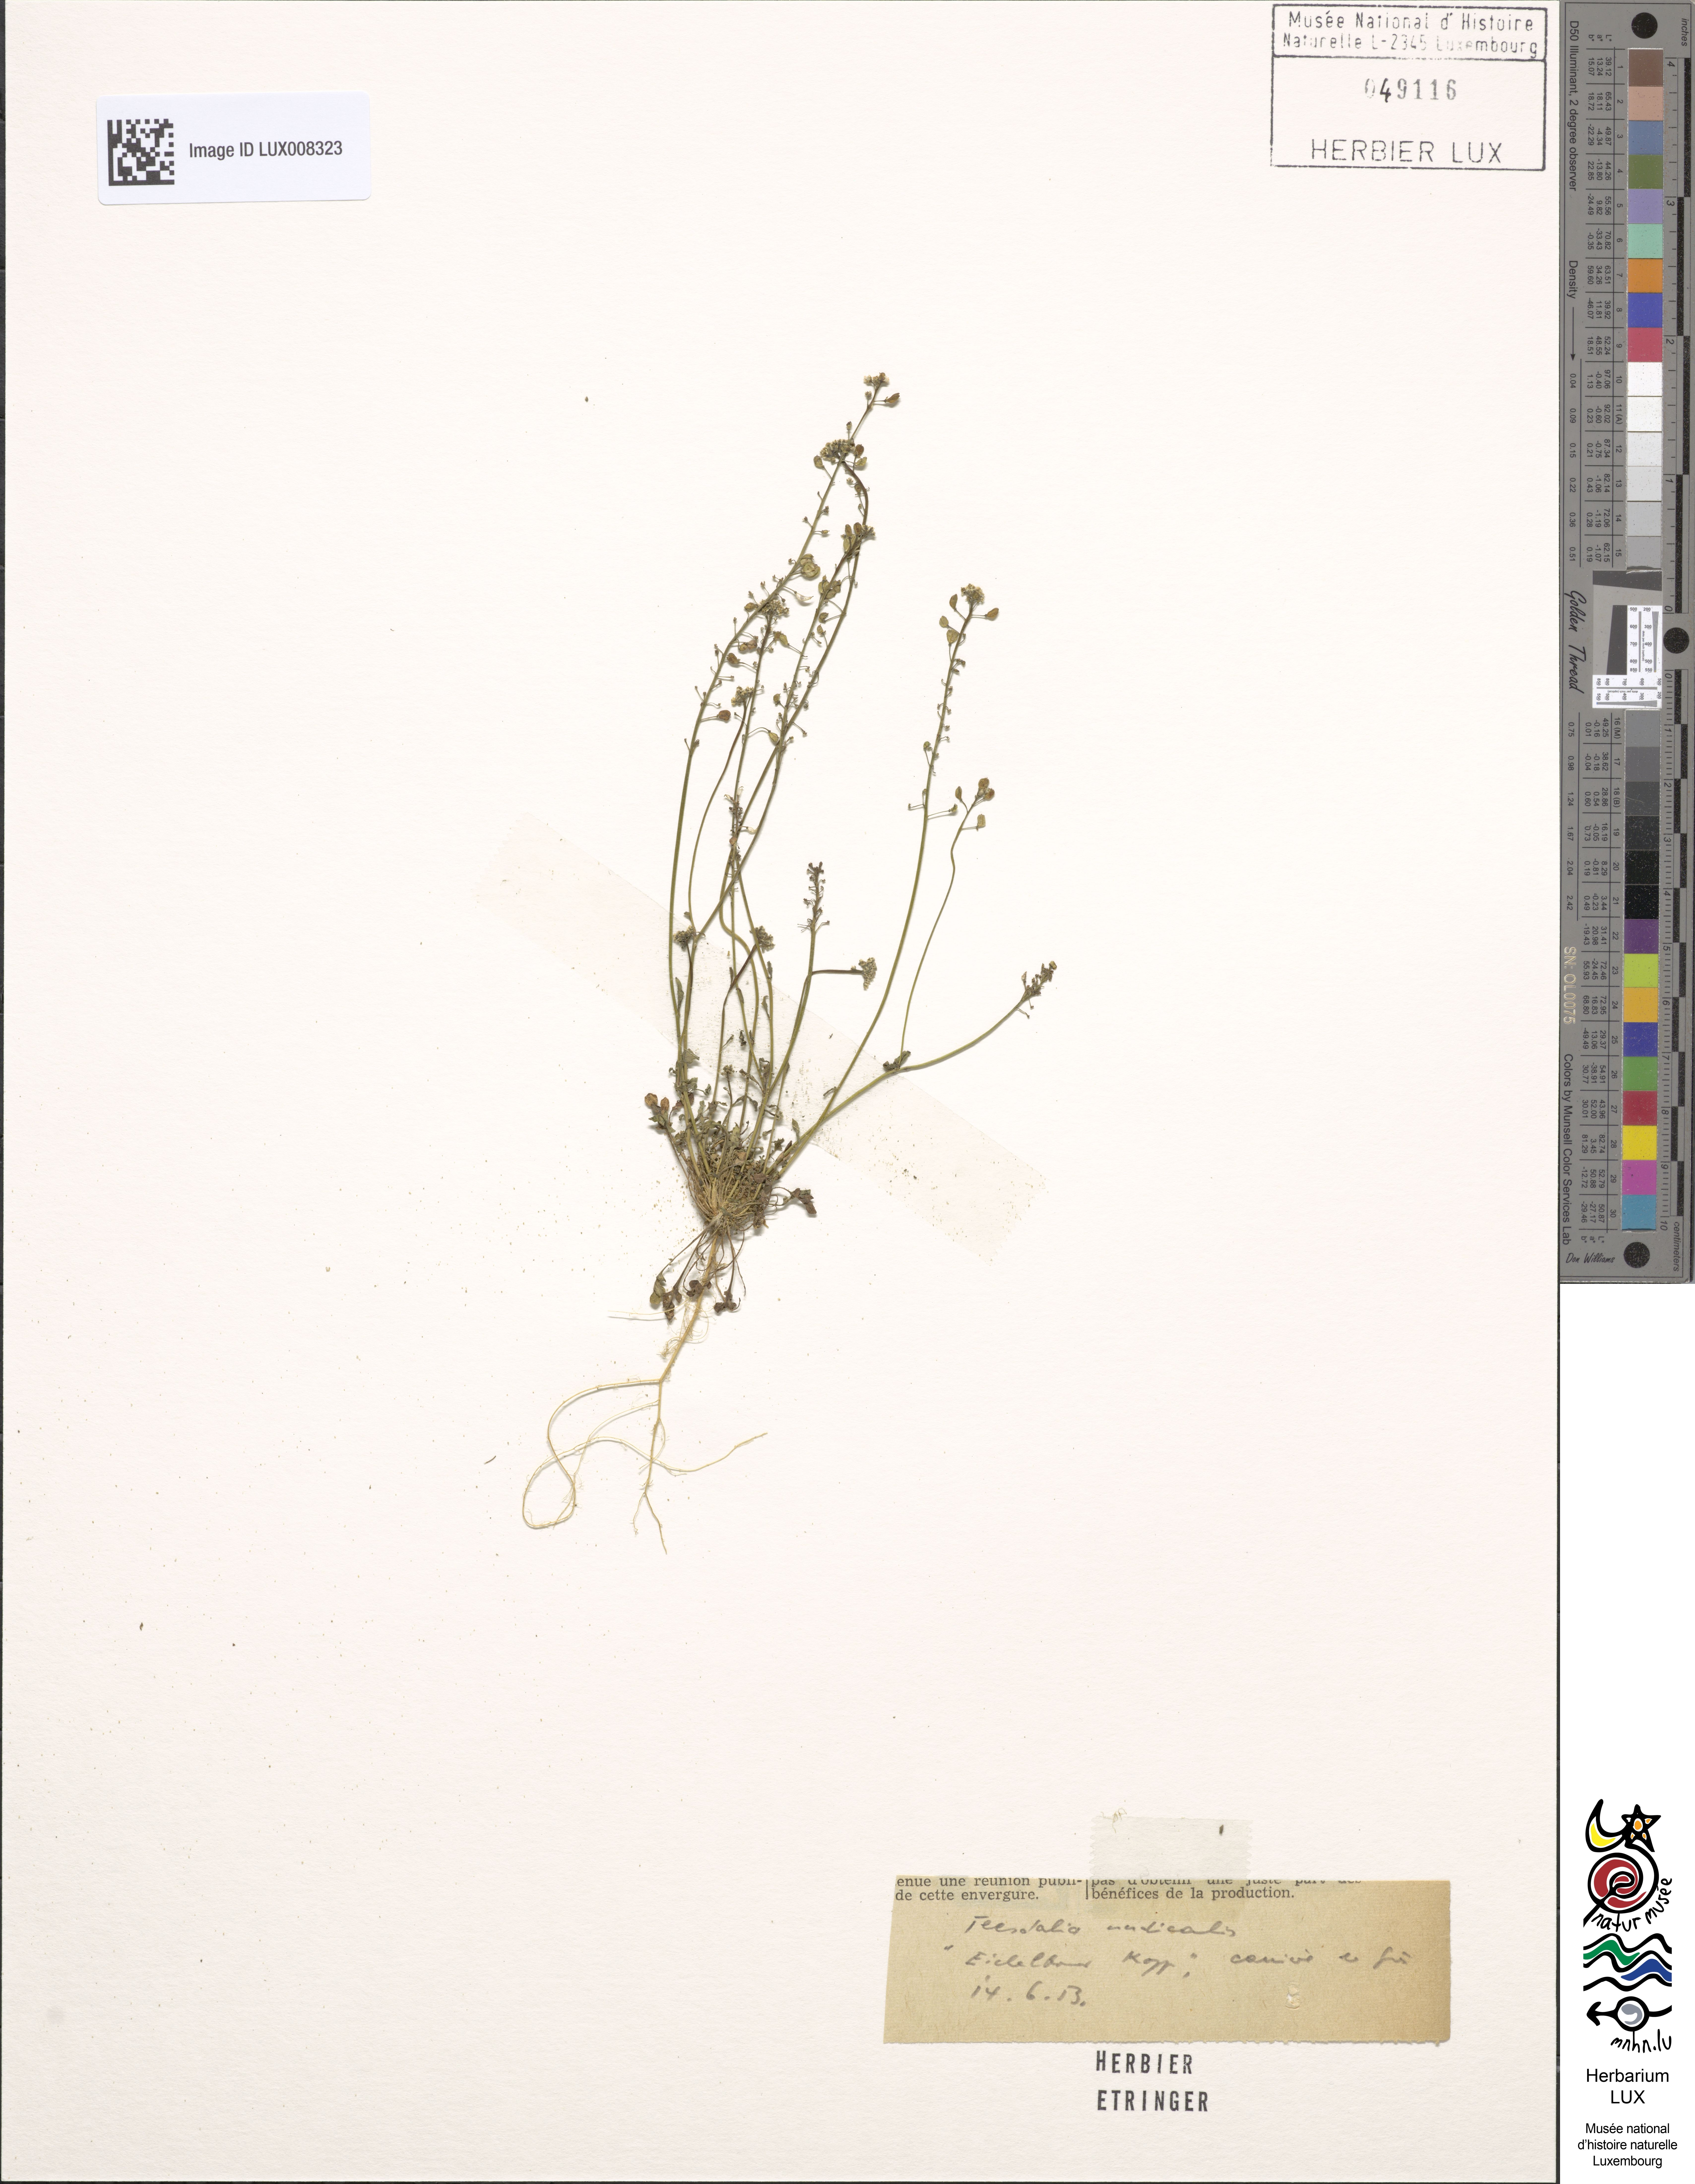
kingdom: Plantae
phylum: Tracheophyta
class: Magnoliopsida
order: Brassicales
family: Brassicaceae
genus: Teesdalia
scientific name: Teesdalia nudicaulis
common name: Shepherd's cress
